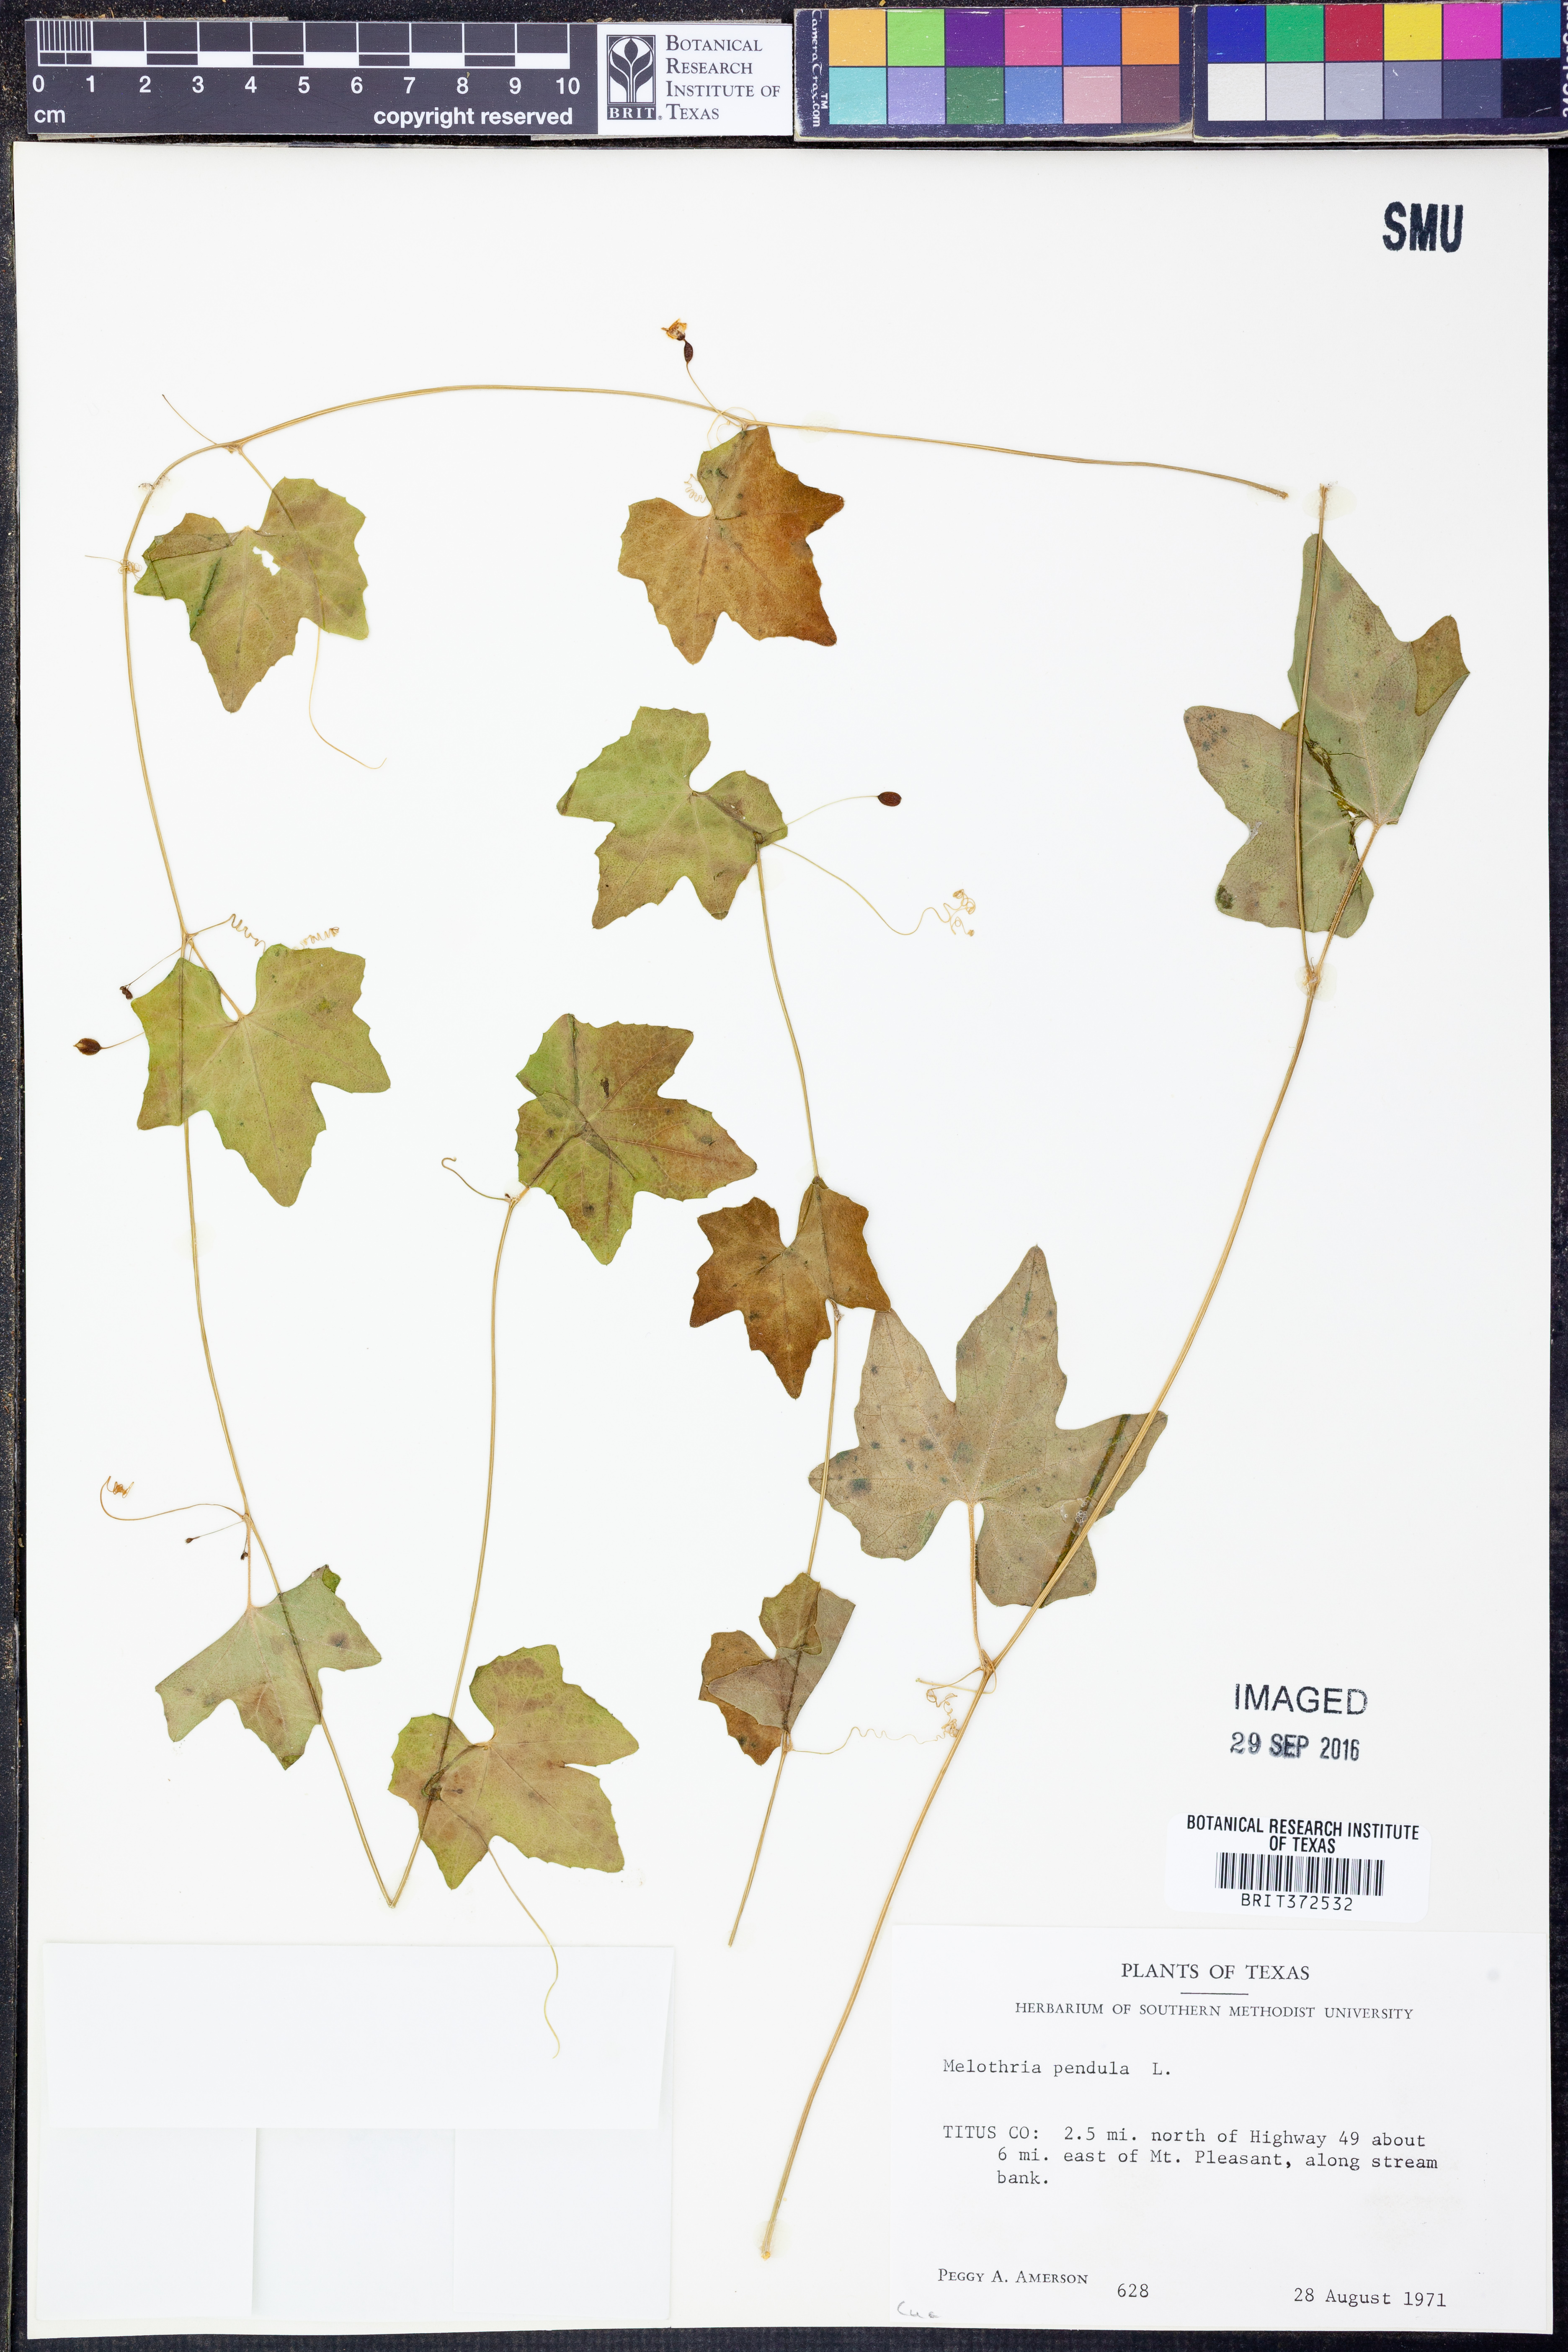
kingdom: Plantae
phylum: Tracheophyta
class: Magnoliopsida
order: Cucurbitales
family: Cucurbitaceae
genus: Melothria
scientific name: Melothria pendula
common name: Creeping-cucumber
